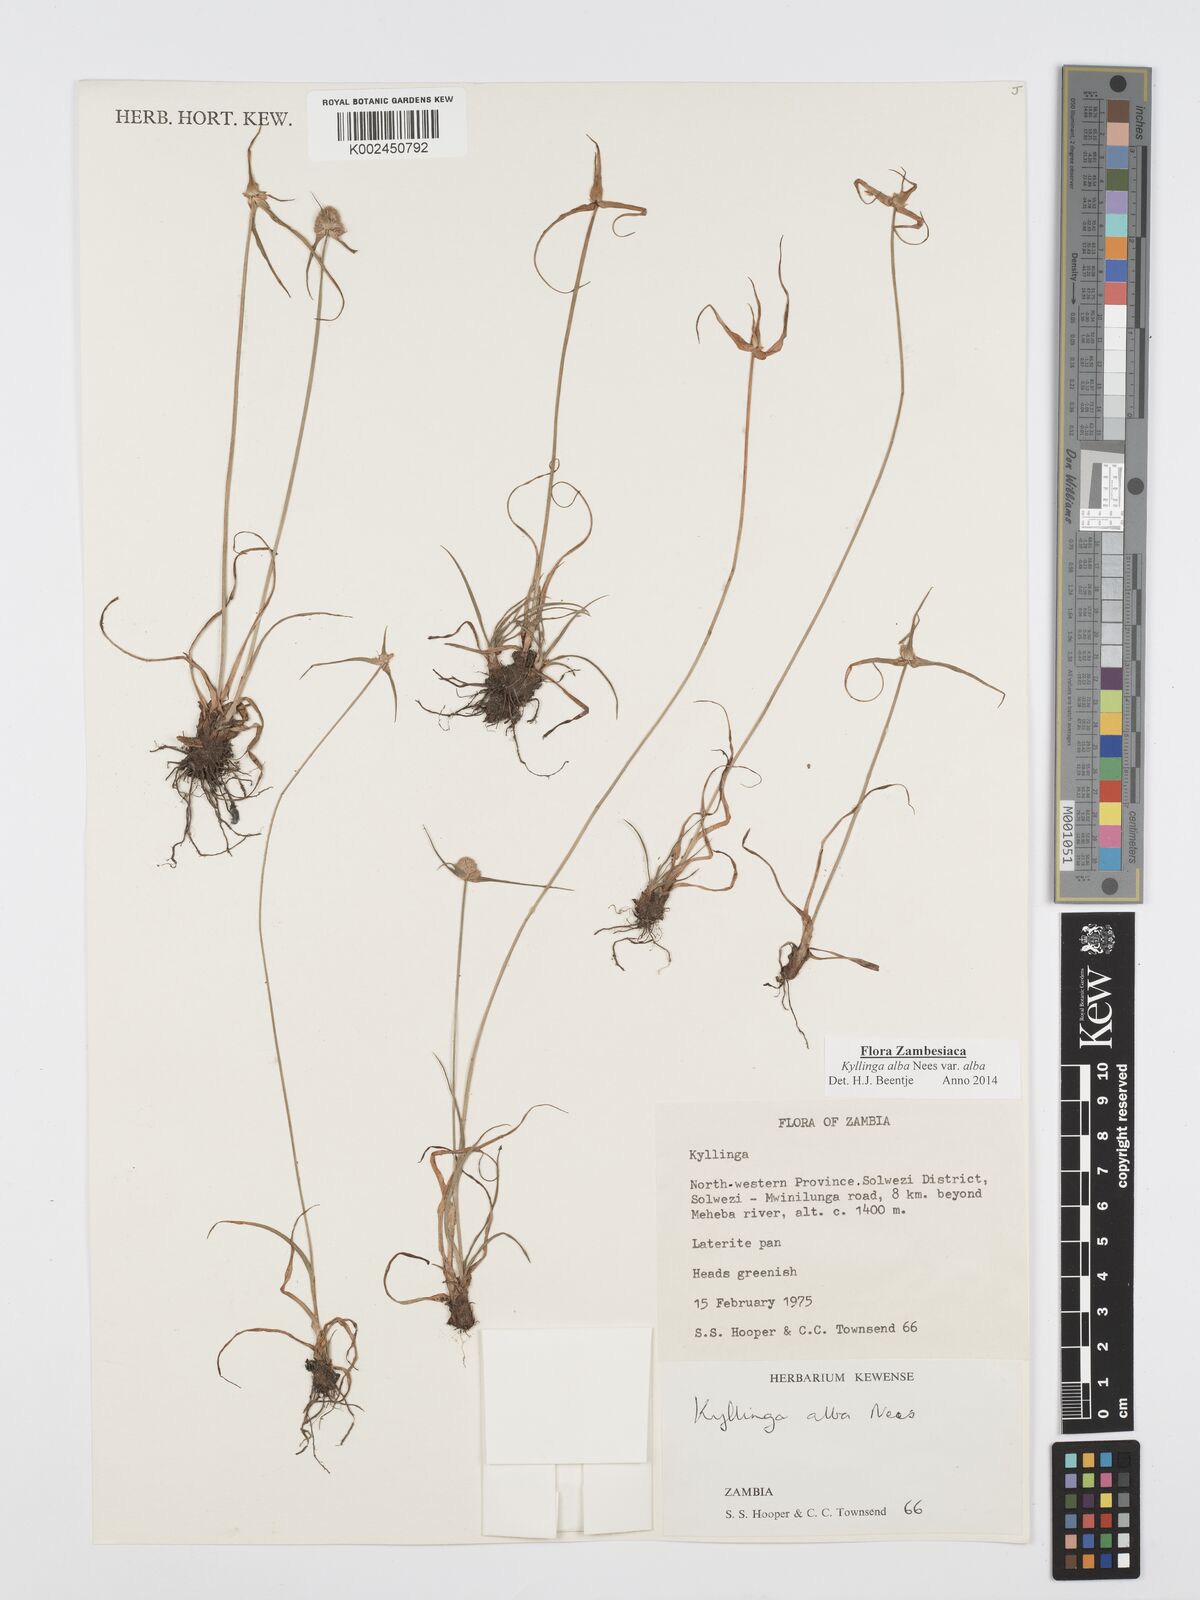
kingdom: Plantae
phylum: Tracheophyta
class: Liliopsida
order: Poales
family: Cyperaceae
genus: Cyperus
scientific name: Cyperus
